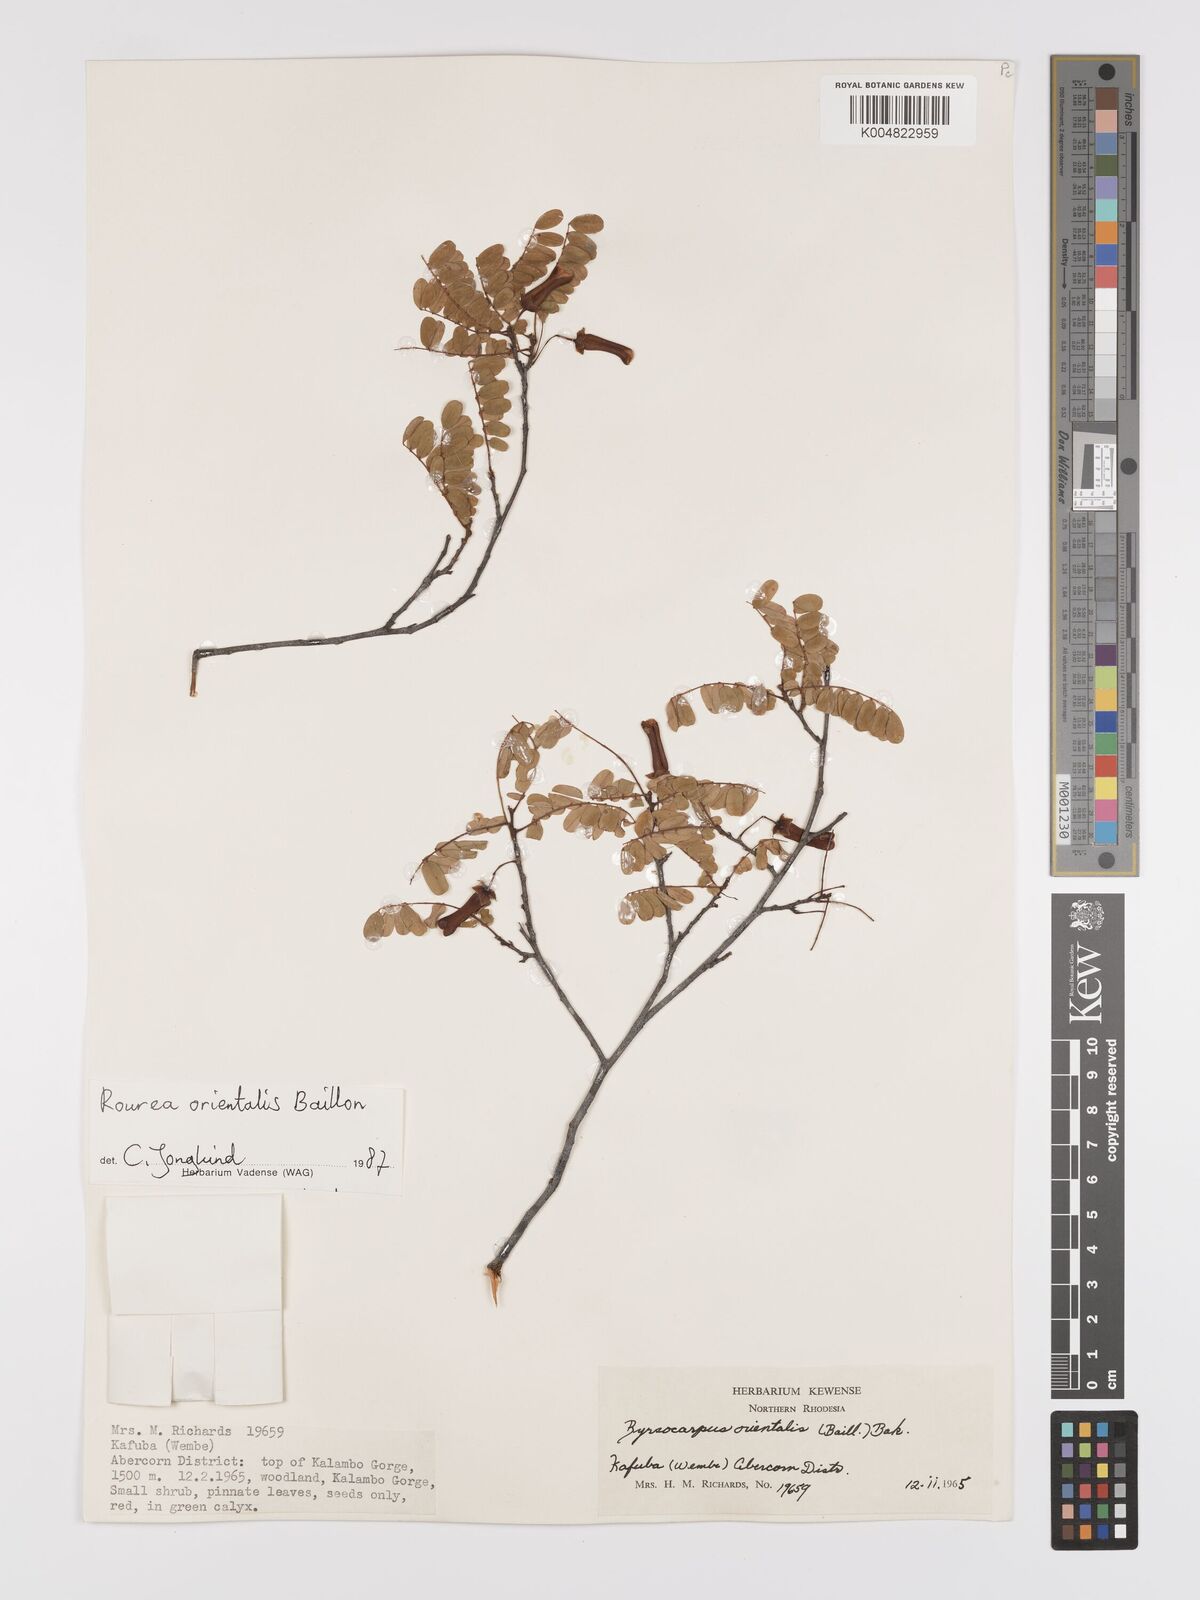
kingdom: Plantae
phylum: Tracheophyta
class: Magnoliopsida
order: Oxalidales
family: Connaraceae
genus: Rourea
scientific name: Rourea orientalis
